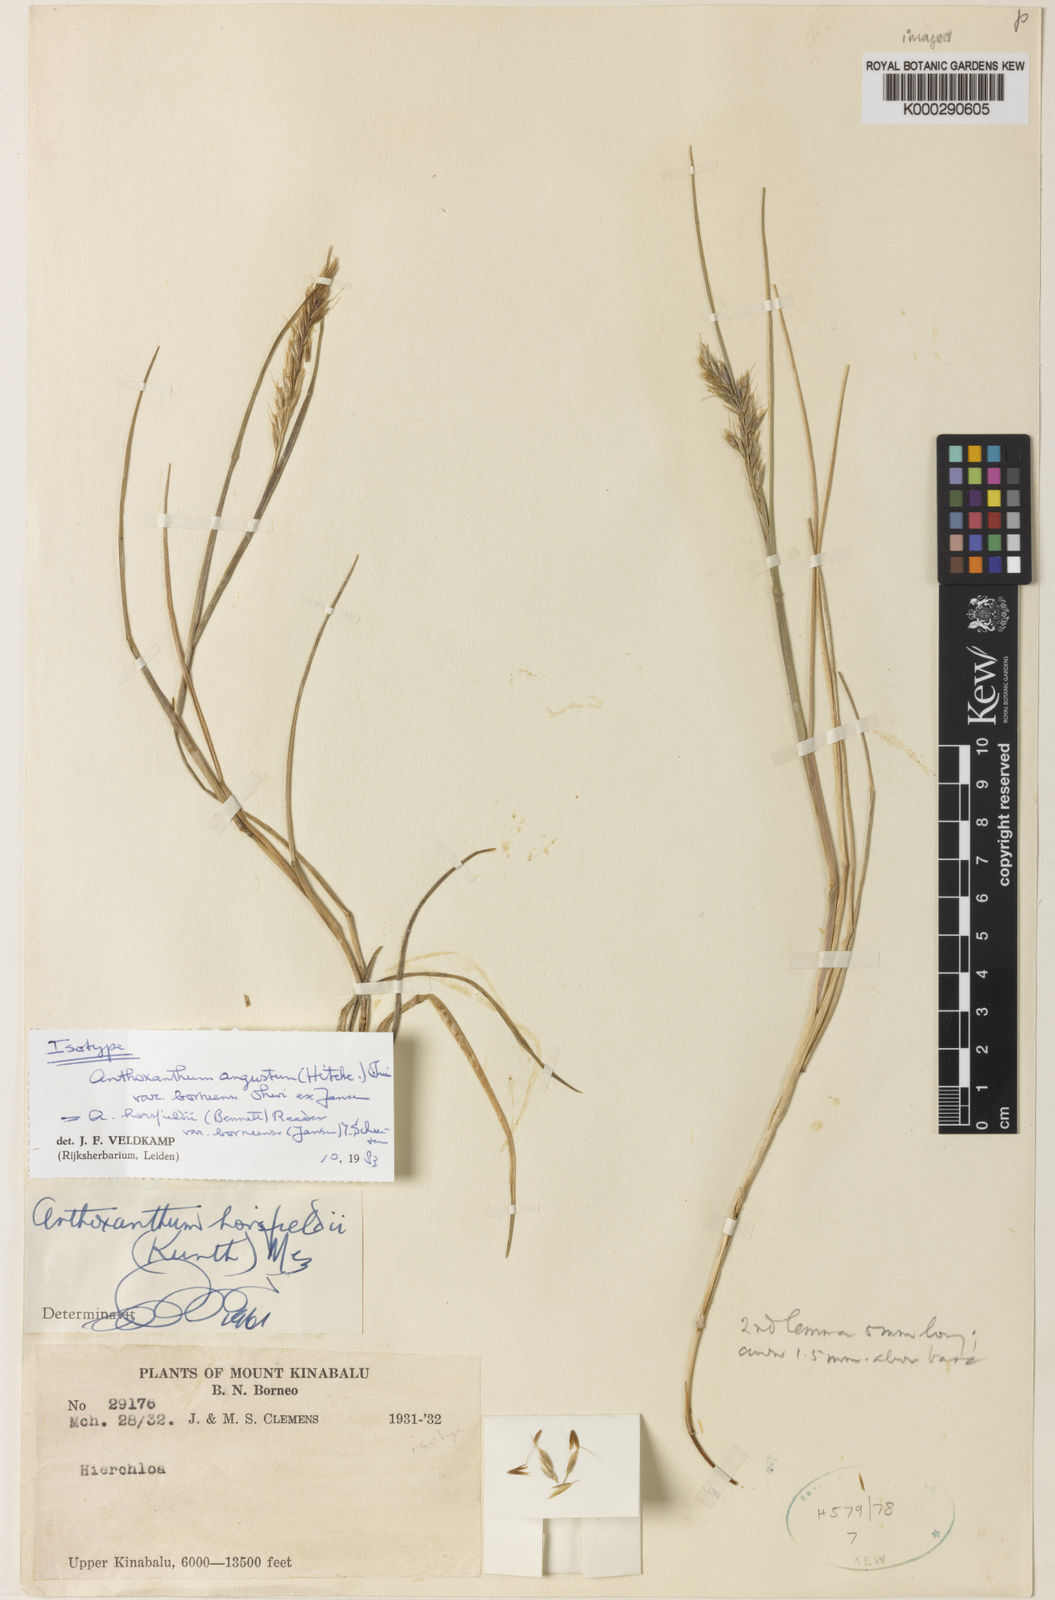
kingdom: Plantae
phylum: Tracheophyta
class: Liliopsida
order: Poales
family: Poaceae
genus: Anthoxanthum
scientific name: Anthoxanthum
